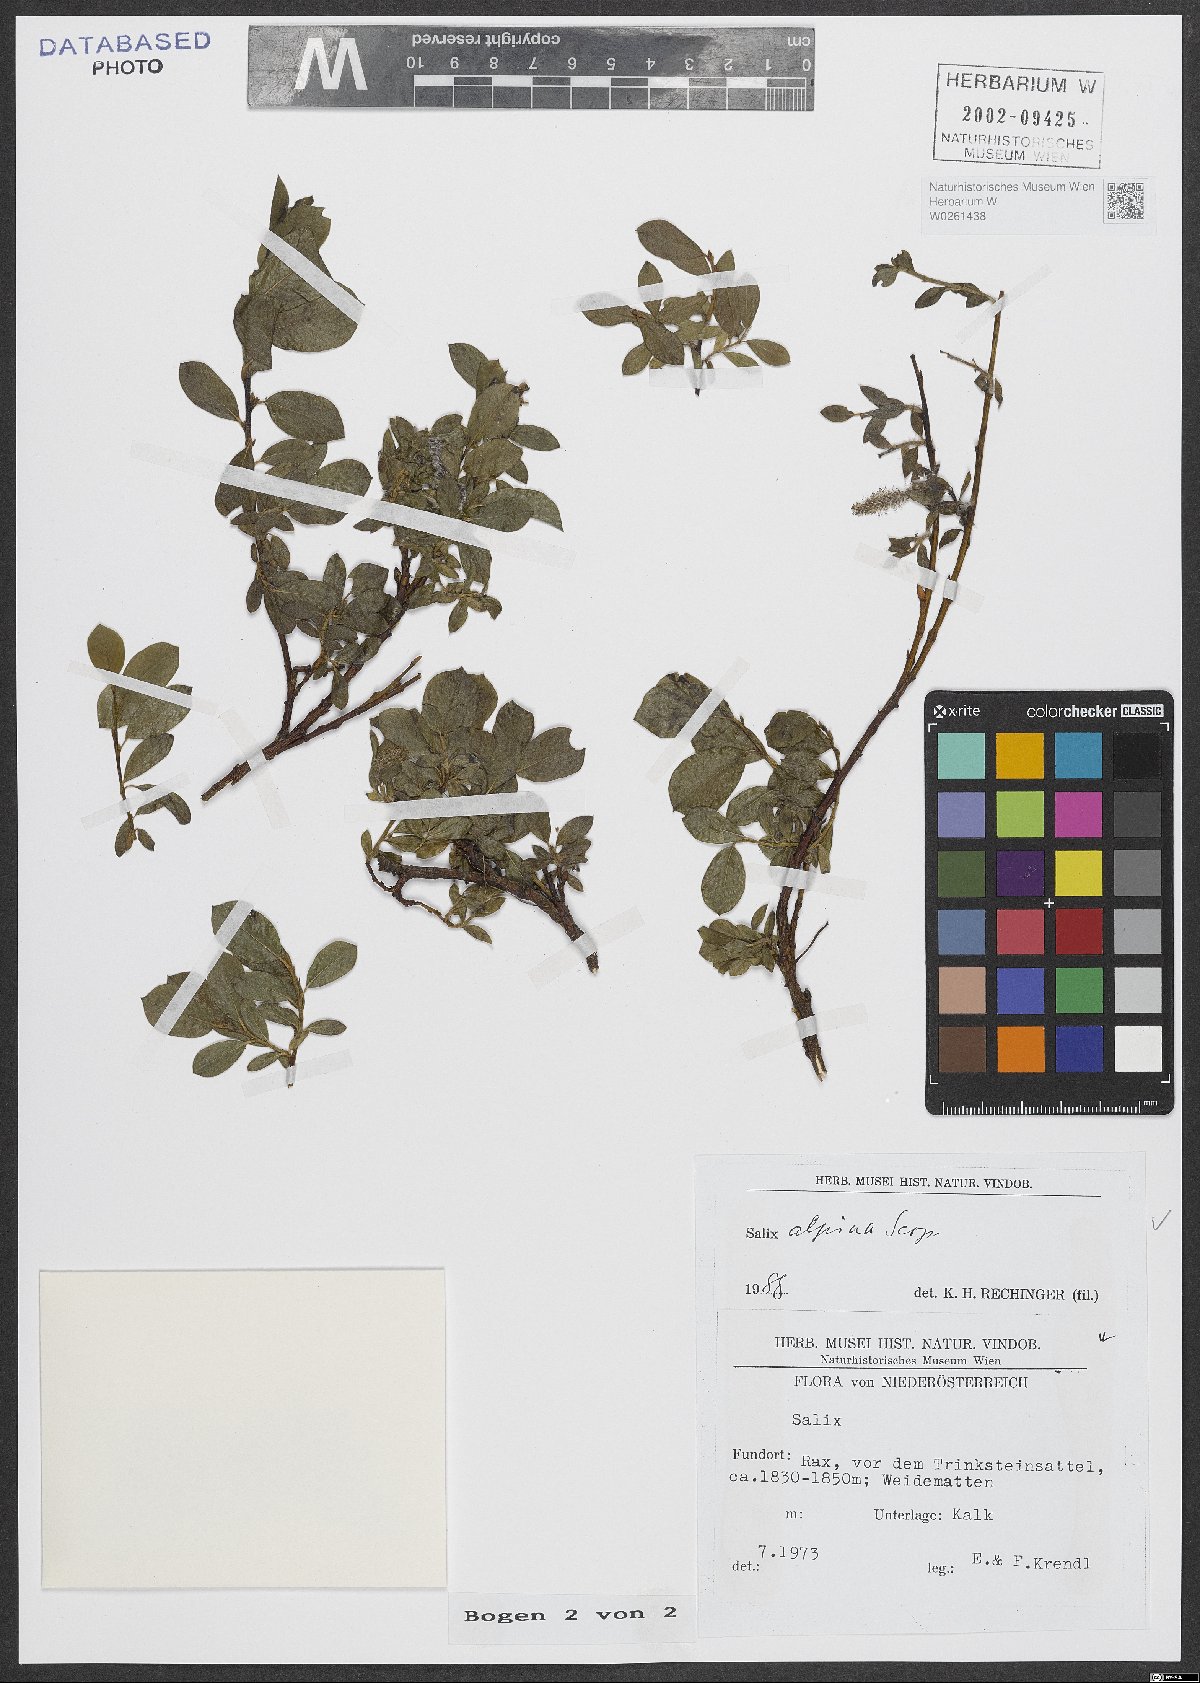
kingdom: Plantae
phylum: Tracheophyta
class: Magnoliopsida
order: Malpighiales
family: Salicaceae
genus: Salix
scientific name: Salix alpina
